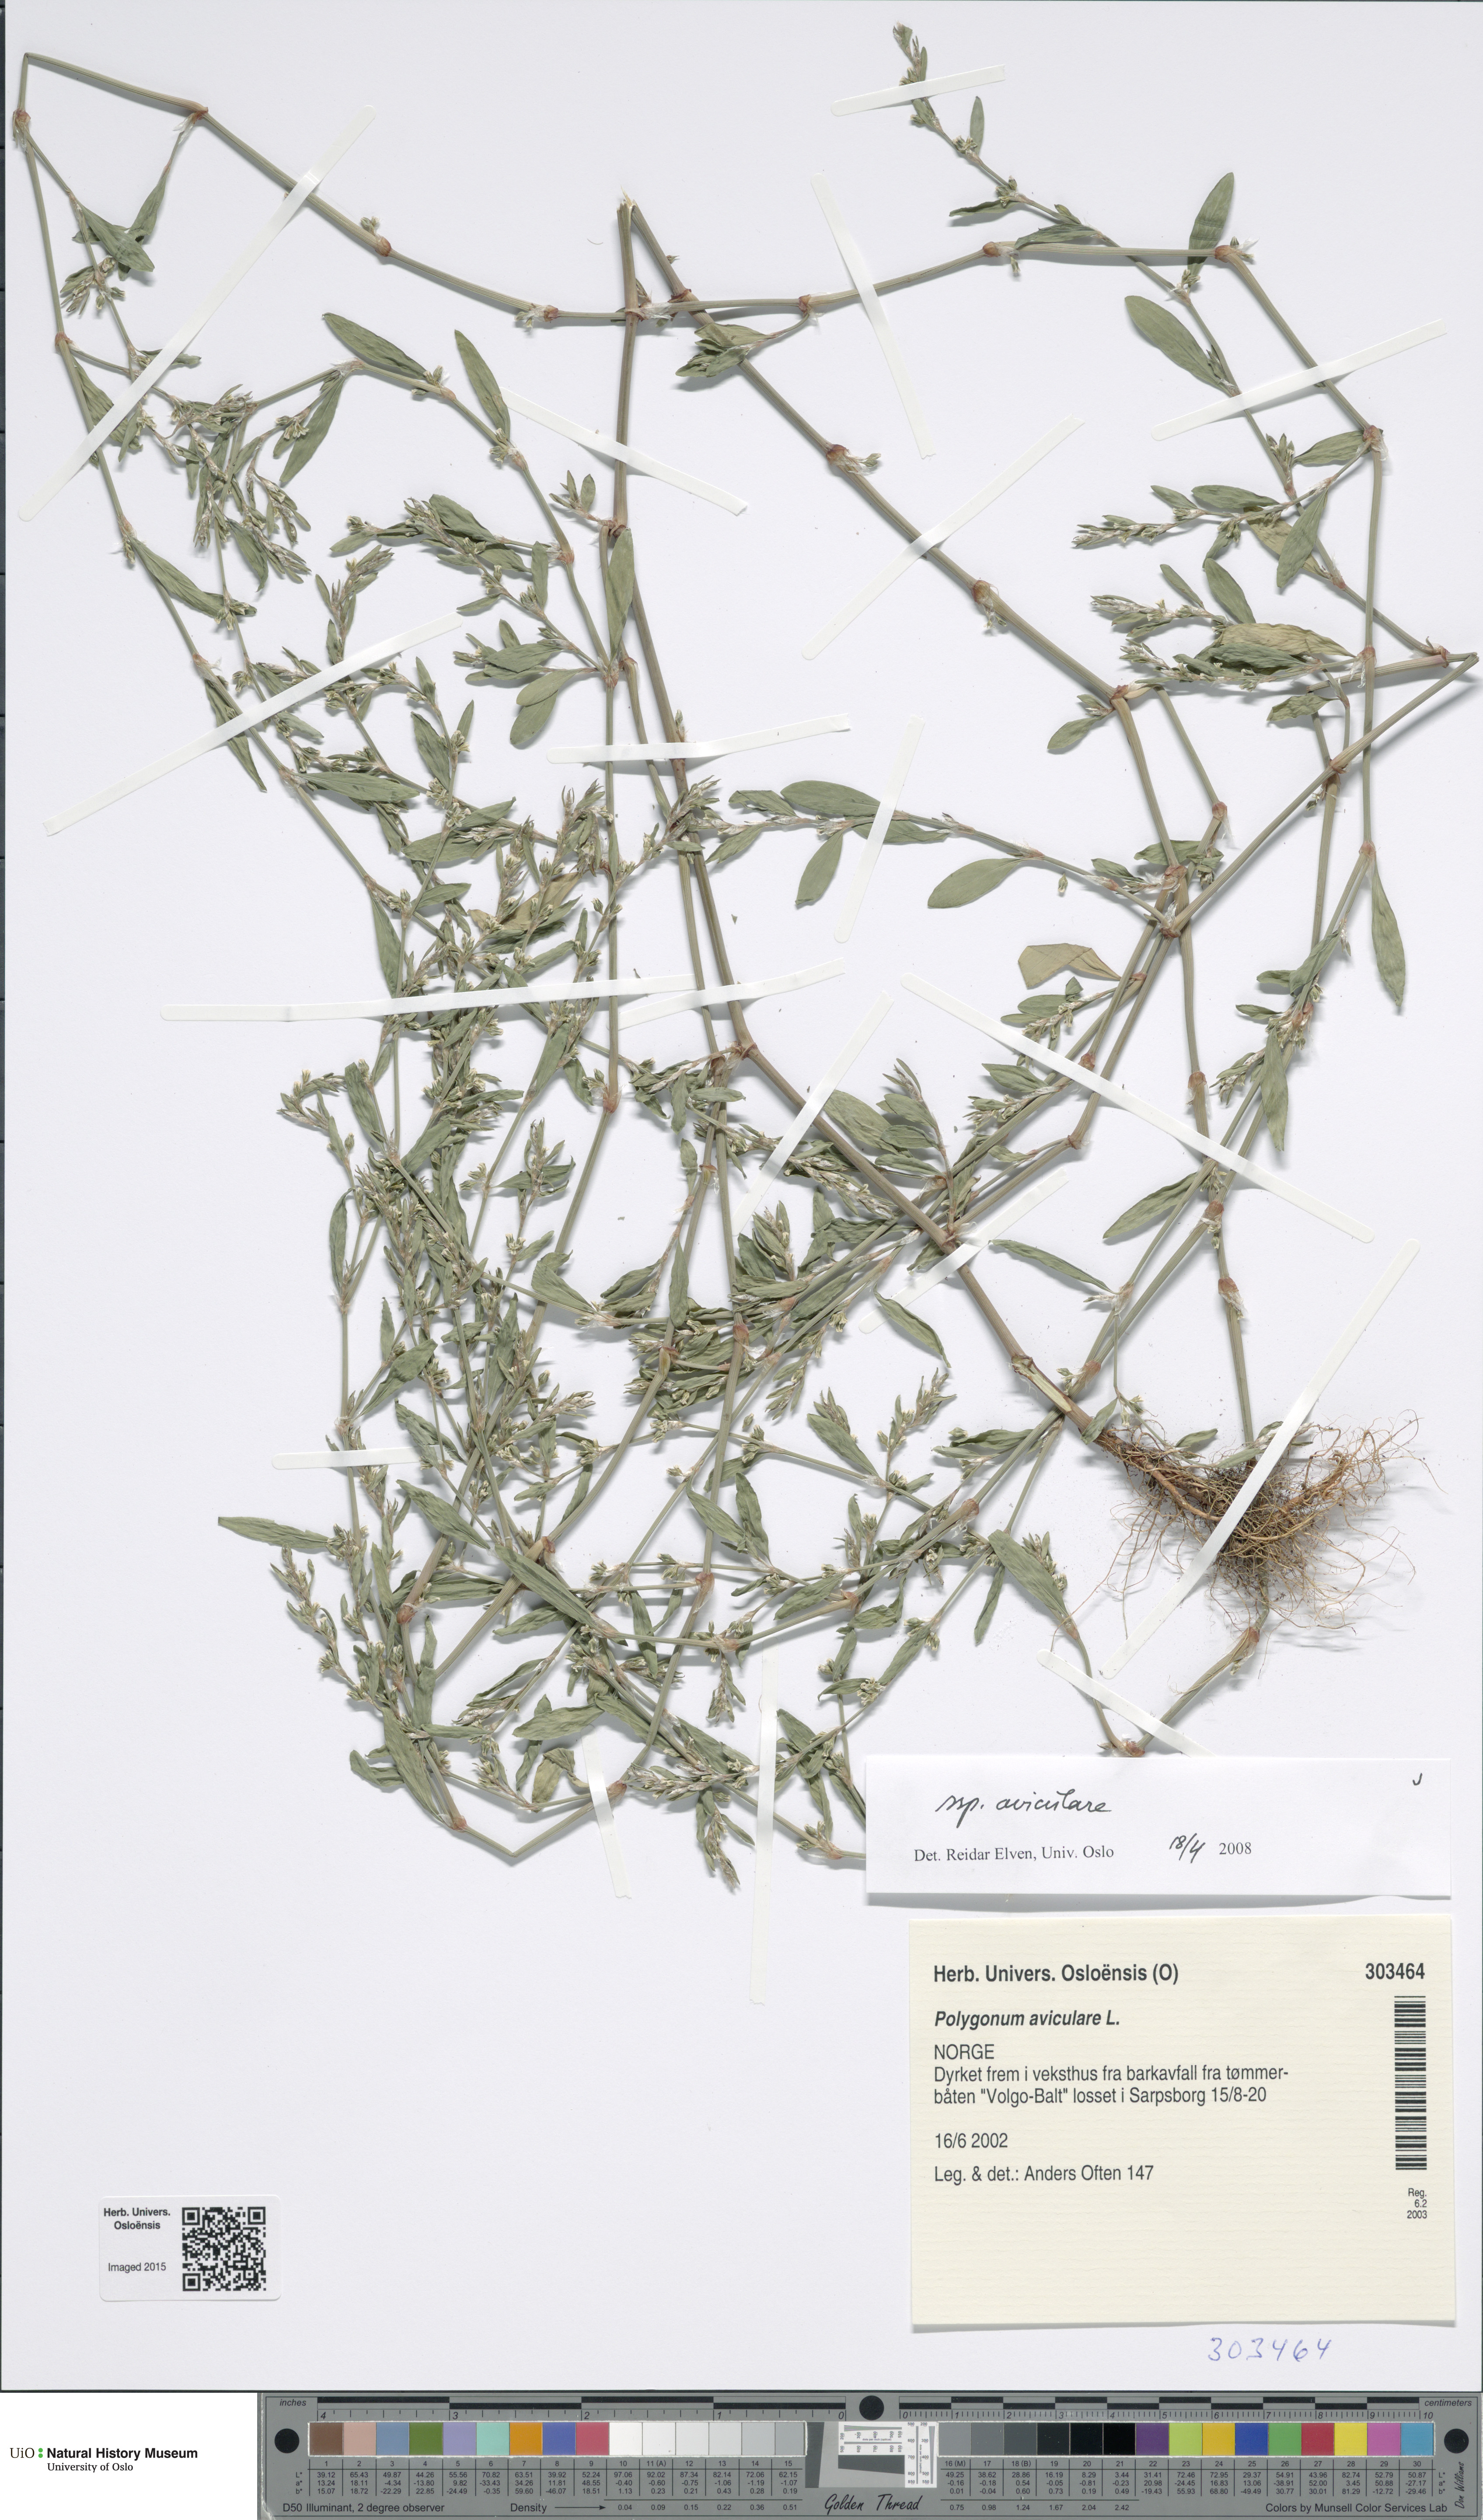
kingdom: Plantae
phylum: Tracheophyta
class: Magnoliopsida
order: Caryophyllales
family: Polygonaceae
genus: Polygonum
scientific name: Polygonum aviculare
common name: Prostrate knotweed
